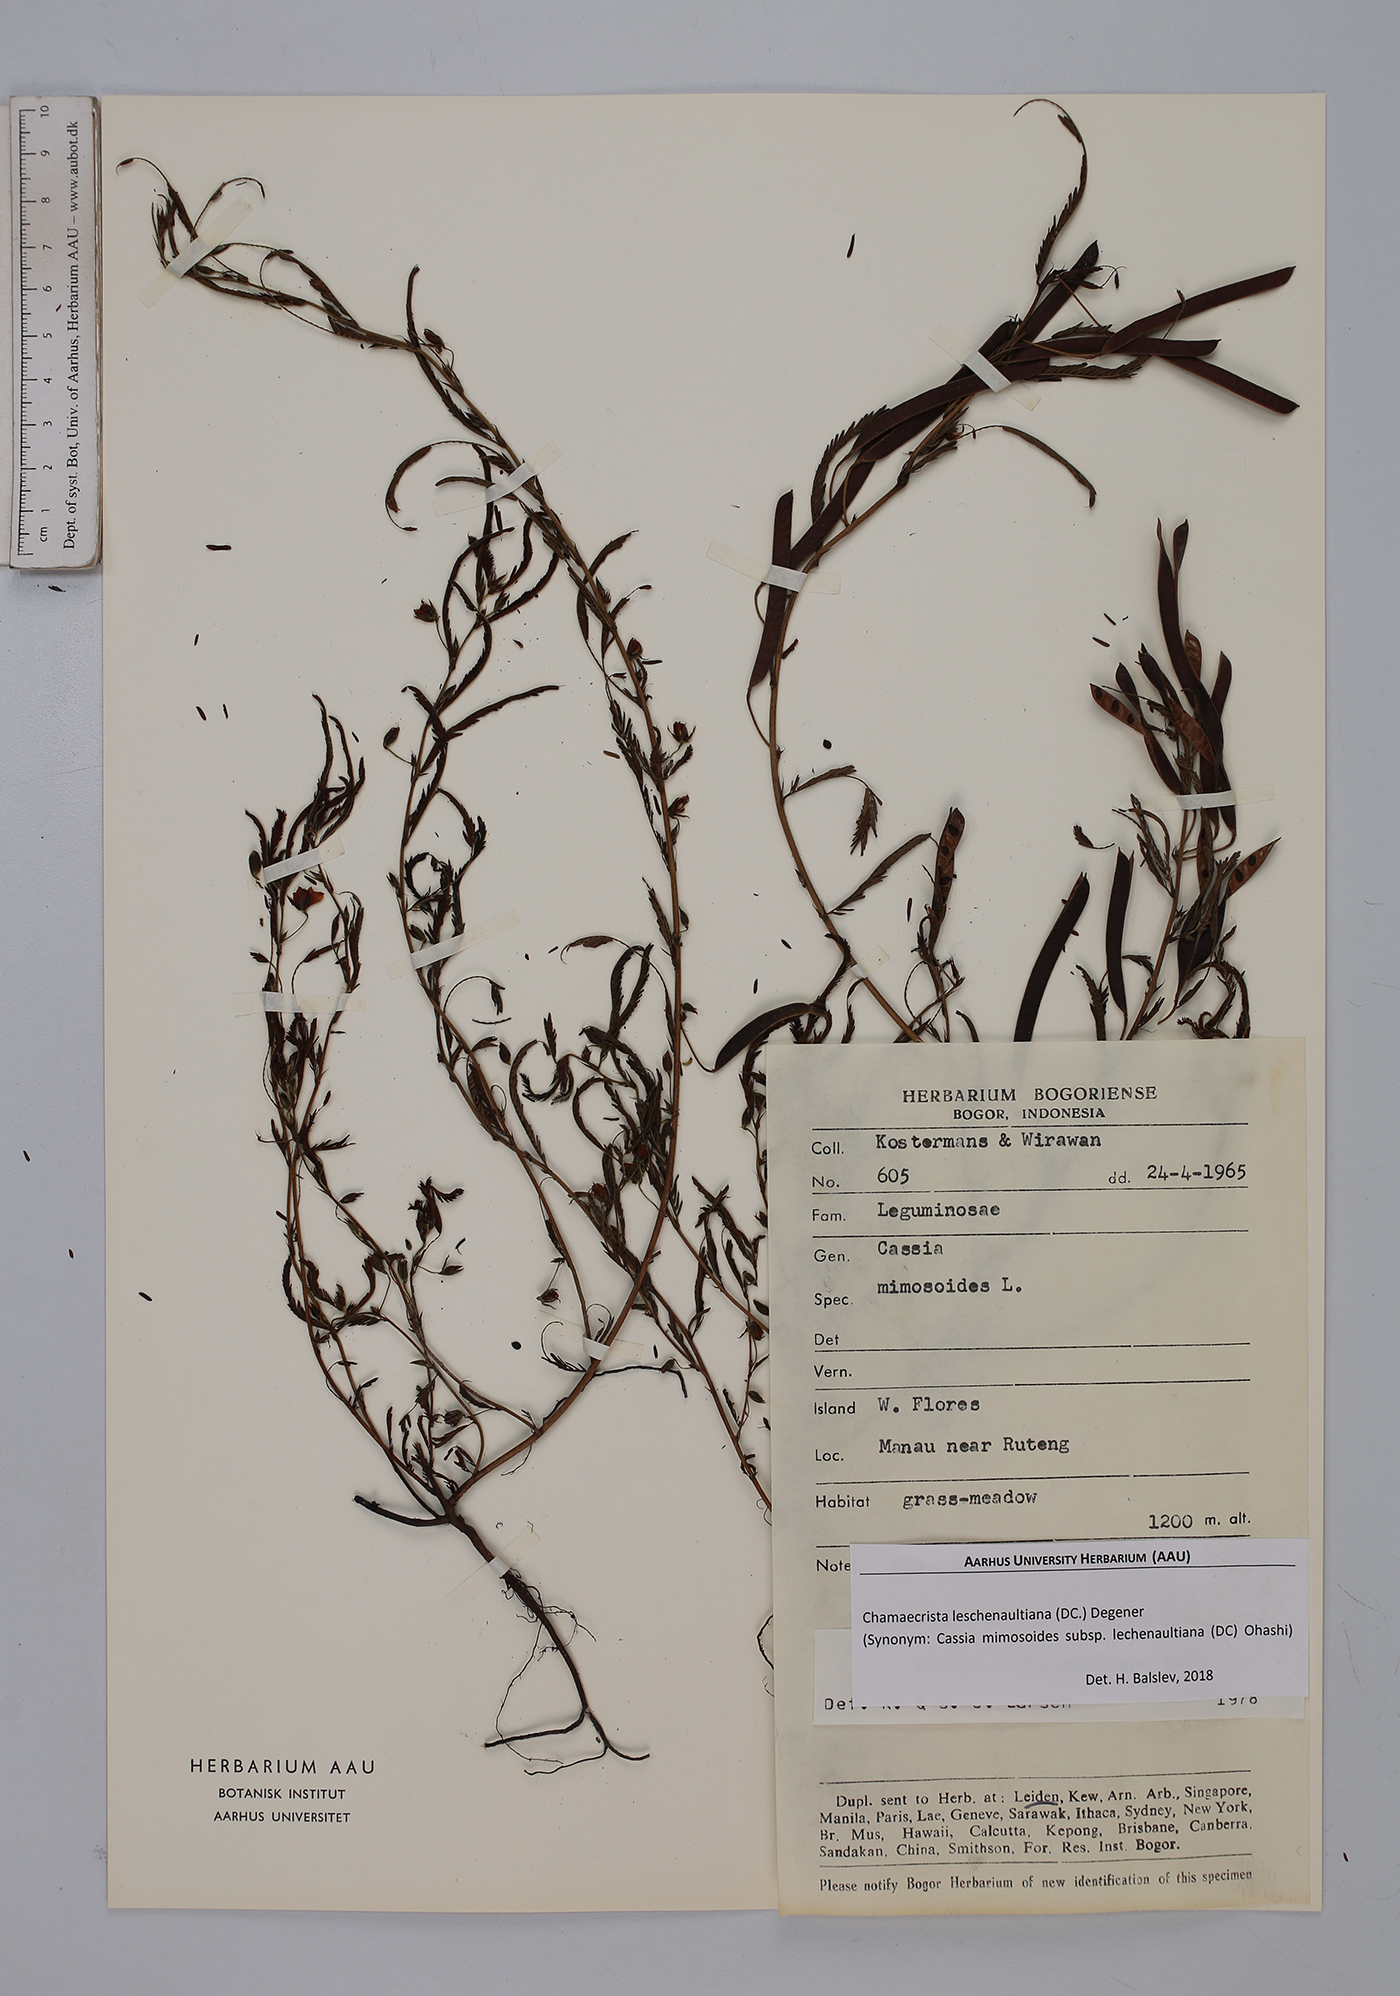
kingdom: Plantae
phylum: Tracheophyta
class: Magnoliopsida
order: Fabales
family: Fabaceae
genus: Chamaecrista
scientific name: Chamaecrista nictitans
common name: Sensitive cassia
